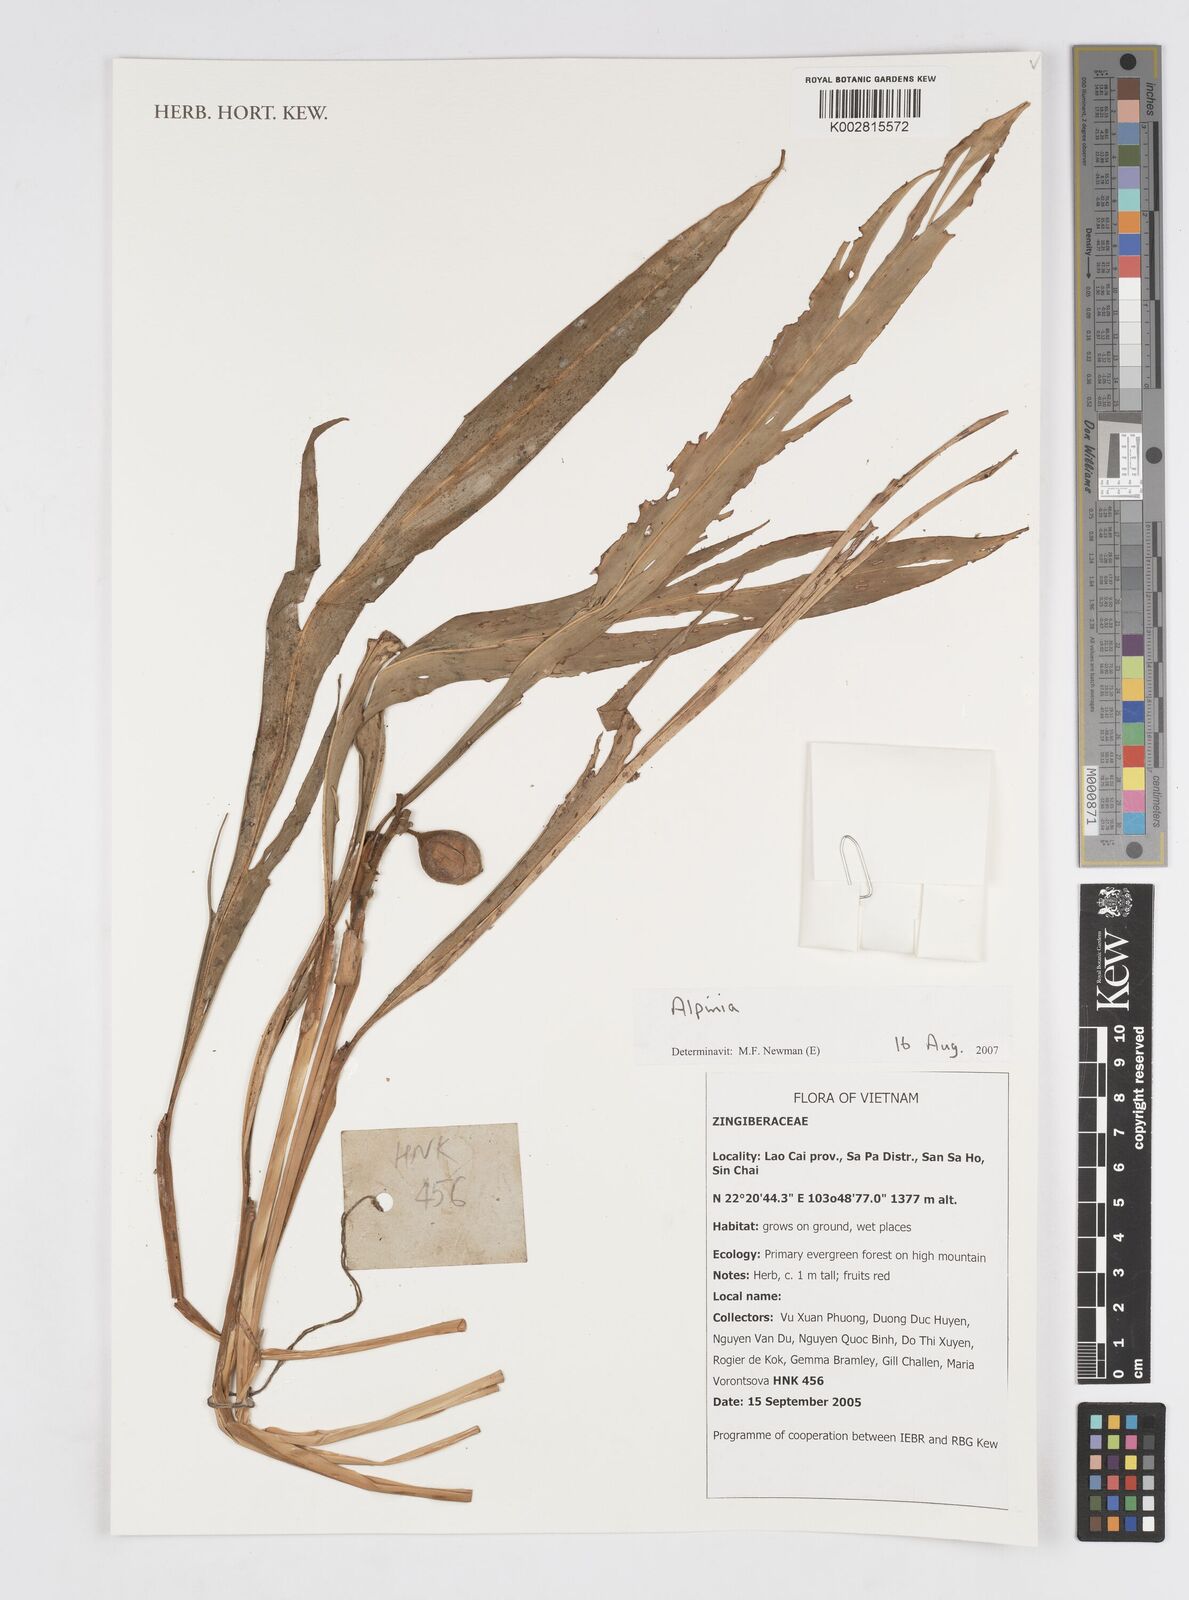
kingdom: Plantae
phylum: Tracheophyta
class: Liliopsida
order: Zingiberales
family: Zingiberaceae
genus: Alpinia
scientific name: Alpinia
